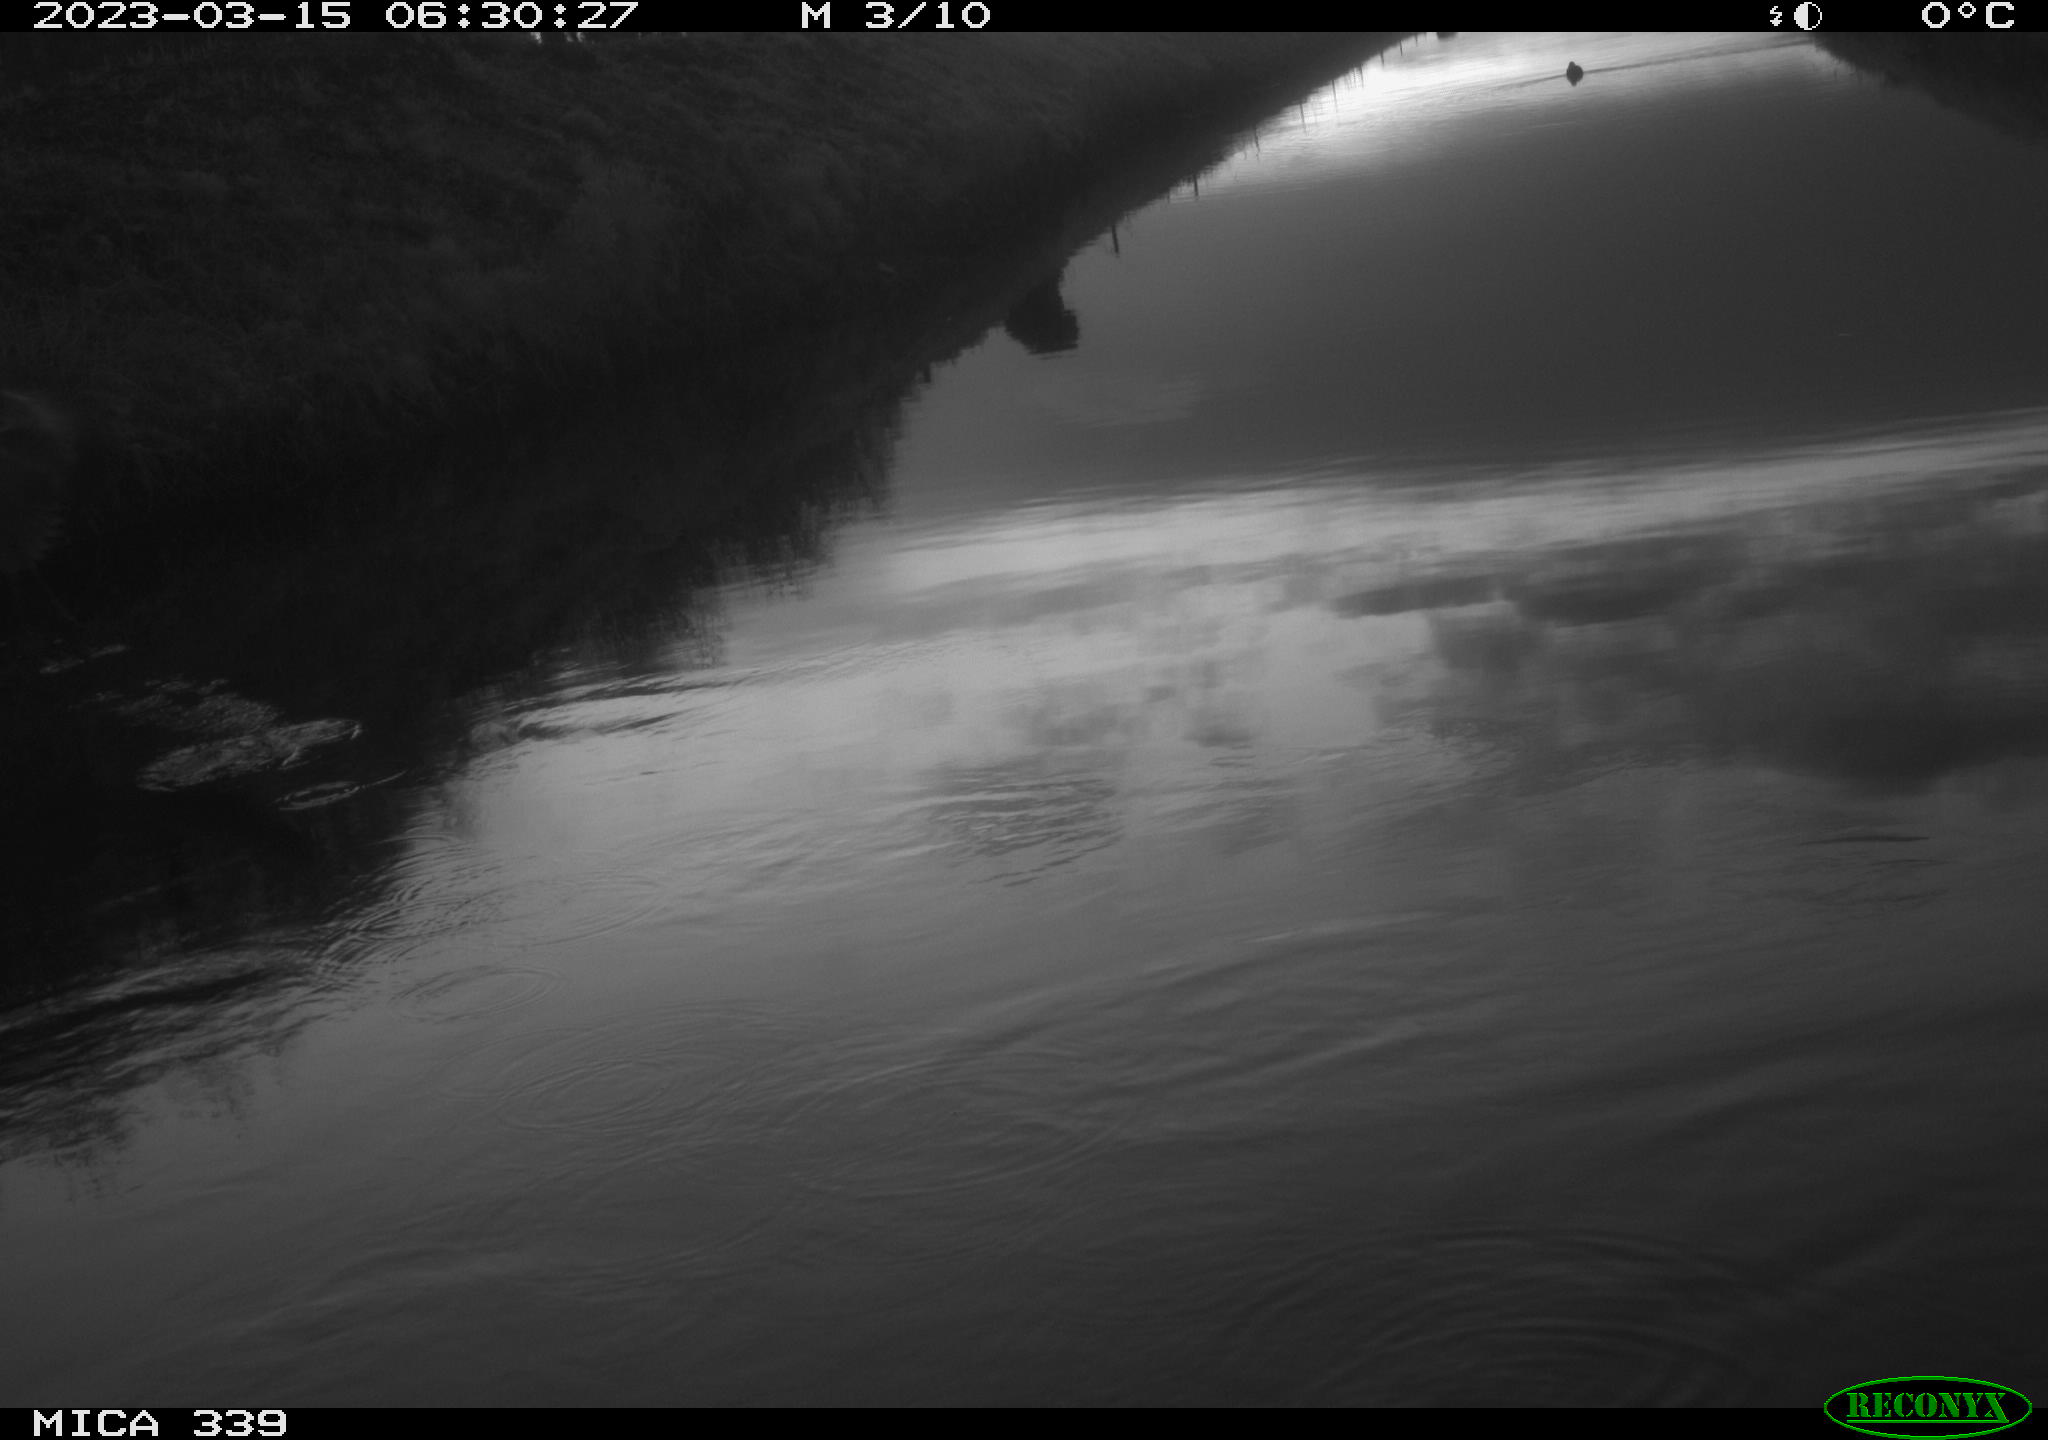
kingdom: Animalia
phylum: Chordata
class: Aves
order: Pelecaniformes
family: Ardeidae
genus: Ardea
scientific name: Ardea cinerea
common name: Grey heron
